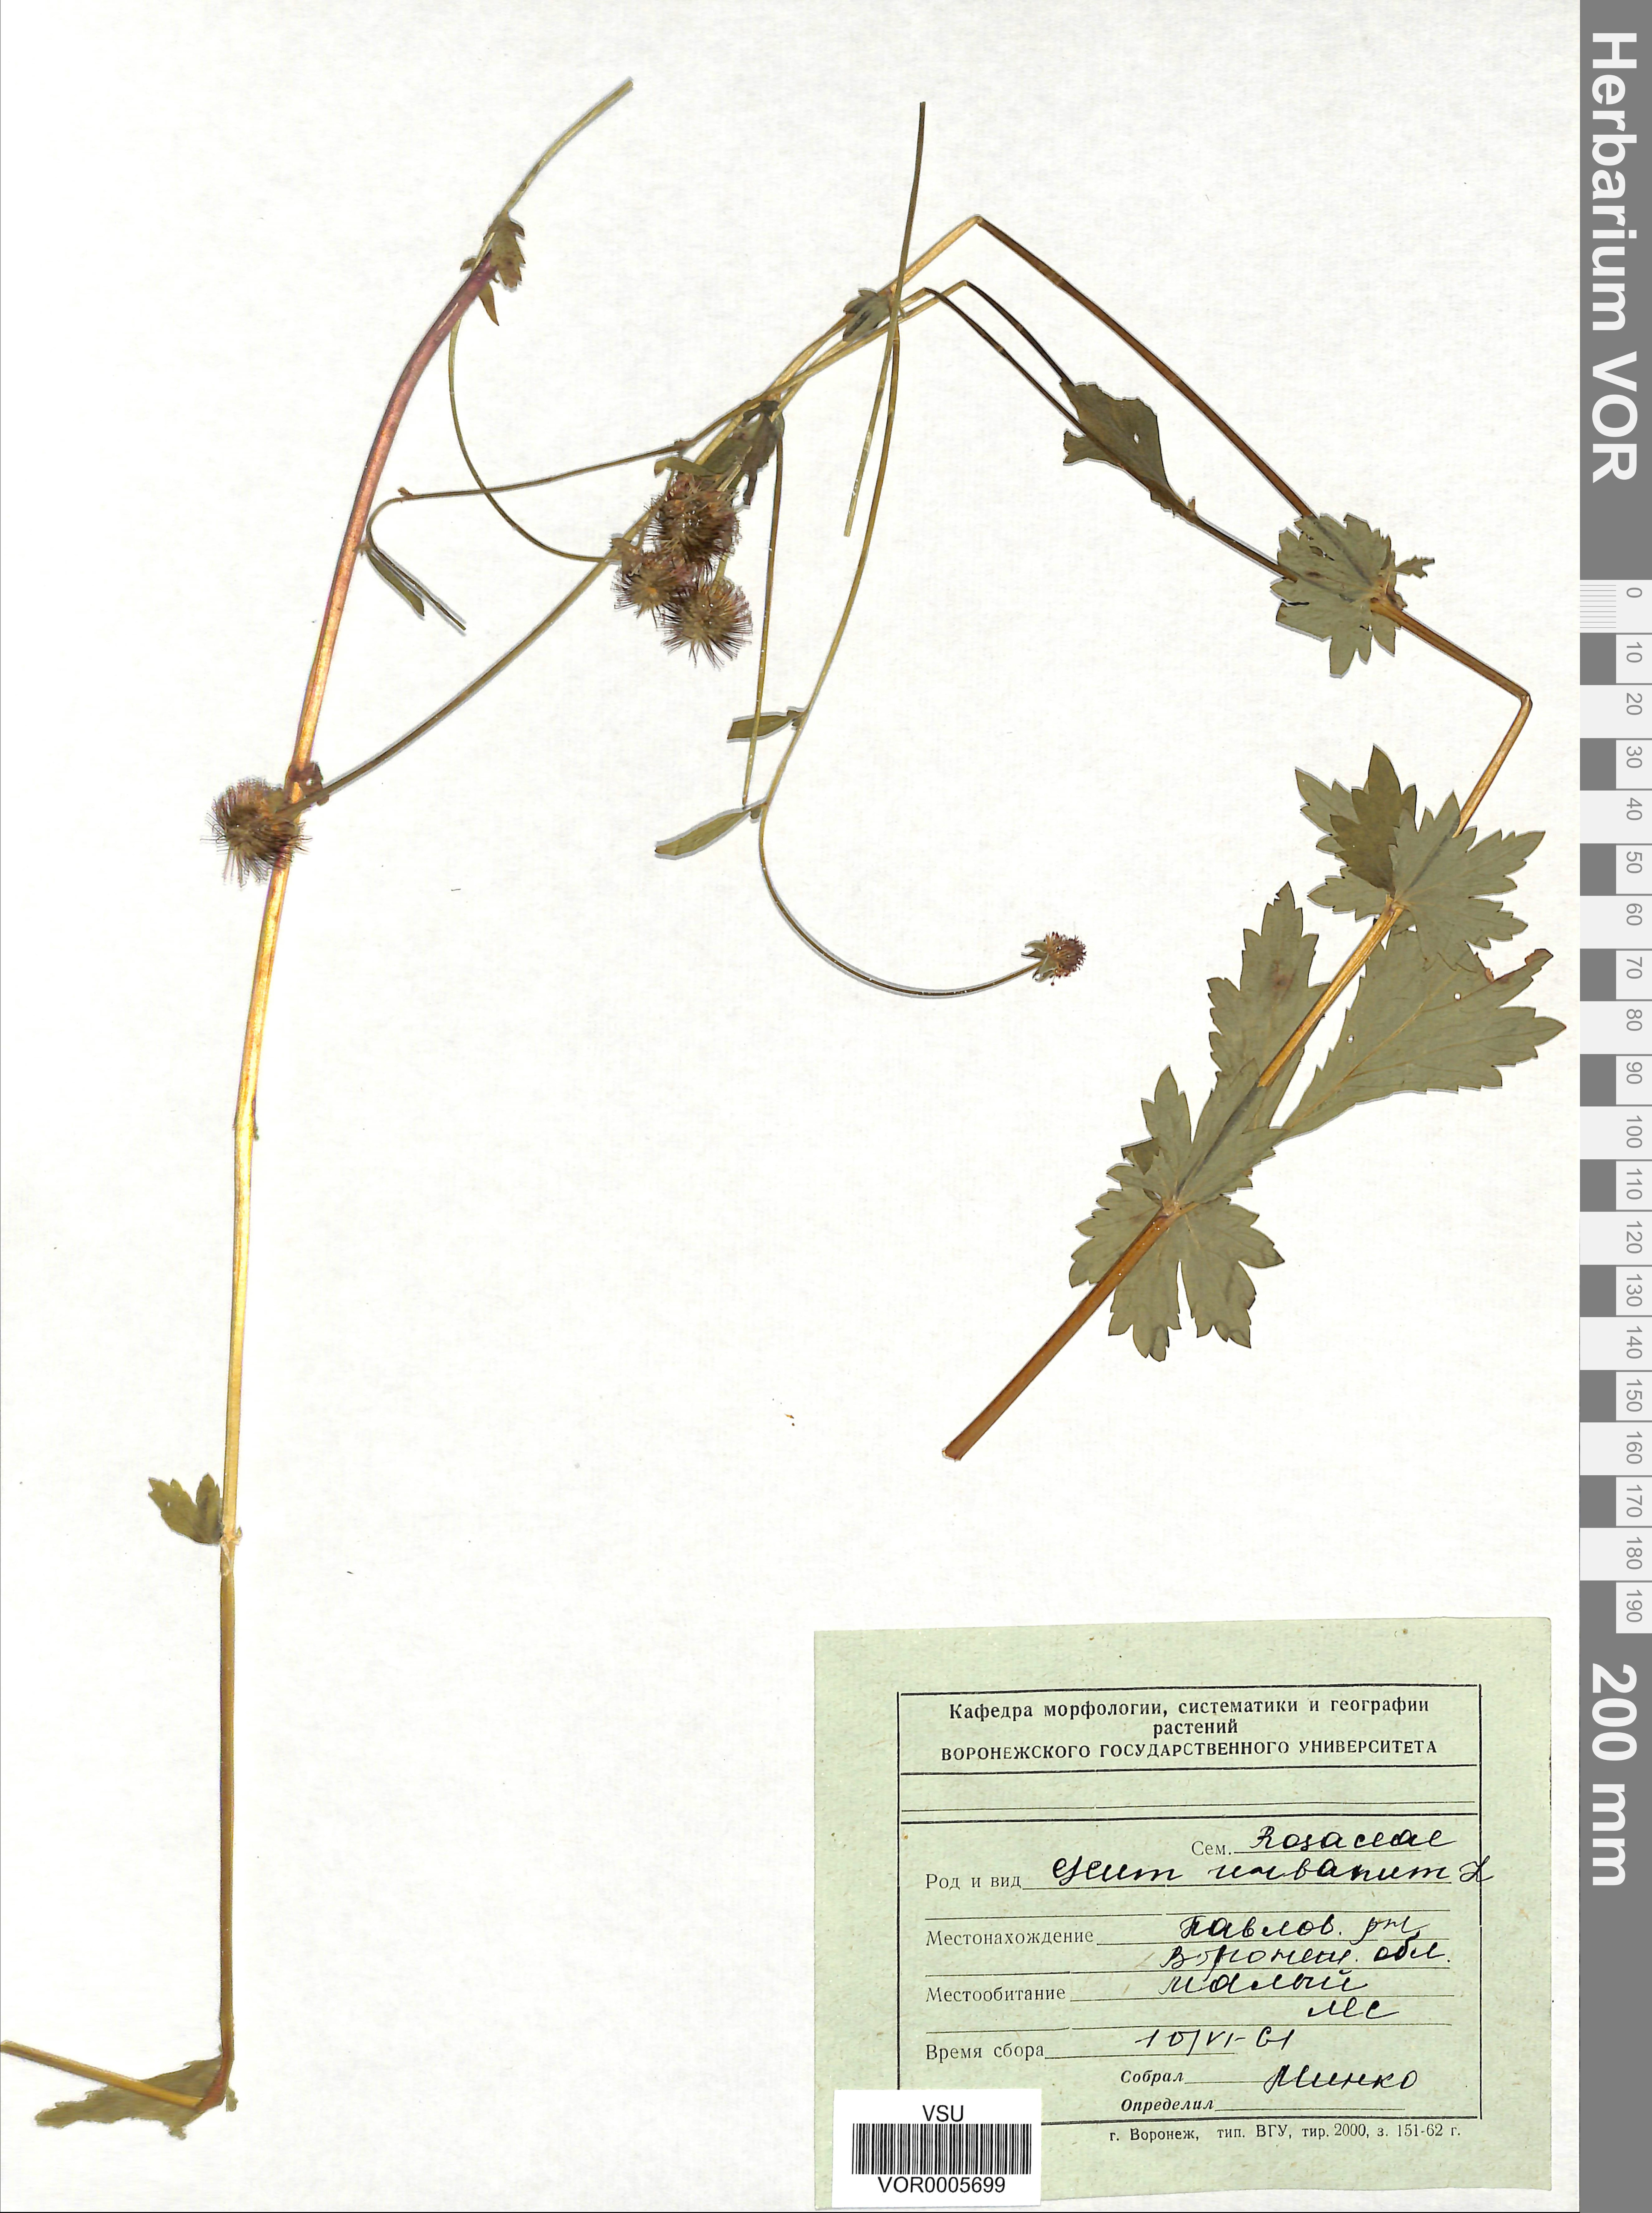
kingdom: Plantae
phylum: Tracheophyta
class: Magnoliopsida
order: Rosales
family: Rosaceae
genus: Geum
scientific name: Geum urbanum
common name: Wood avens
